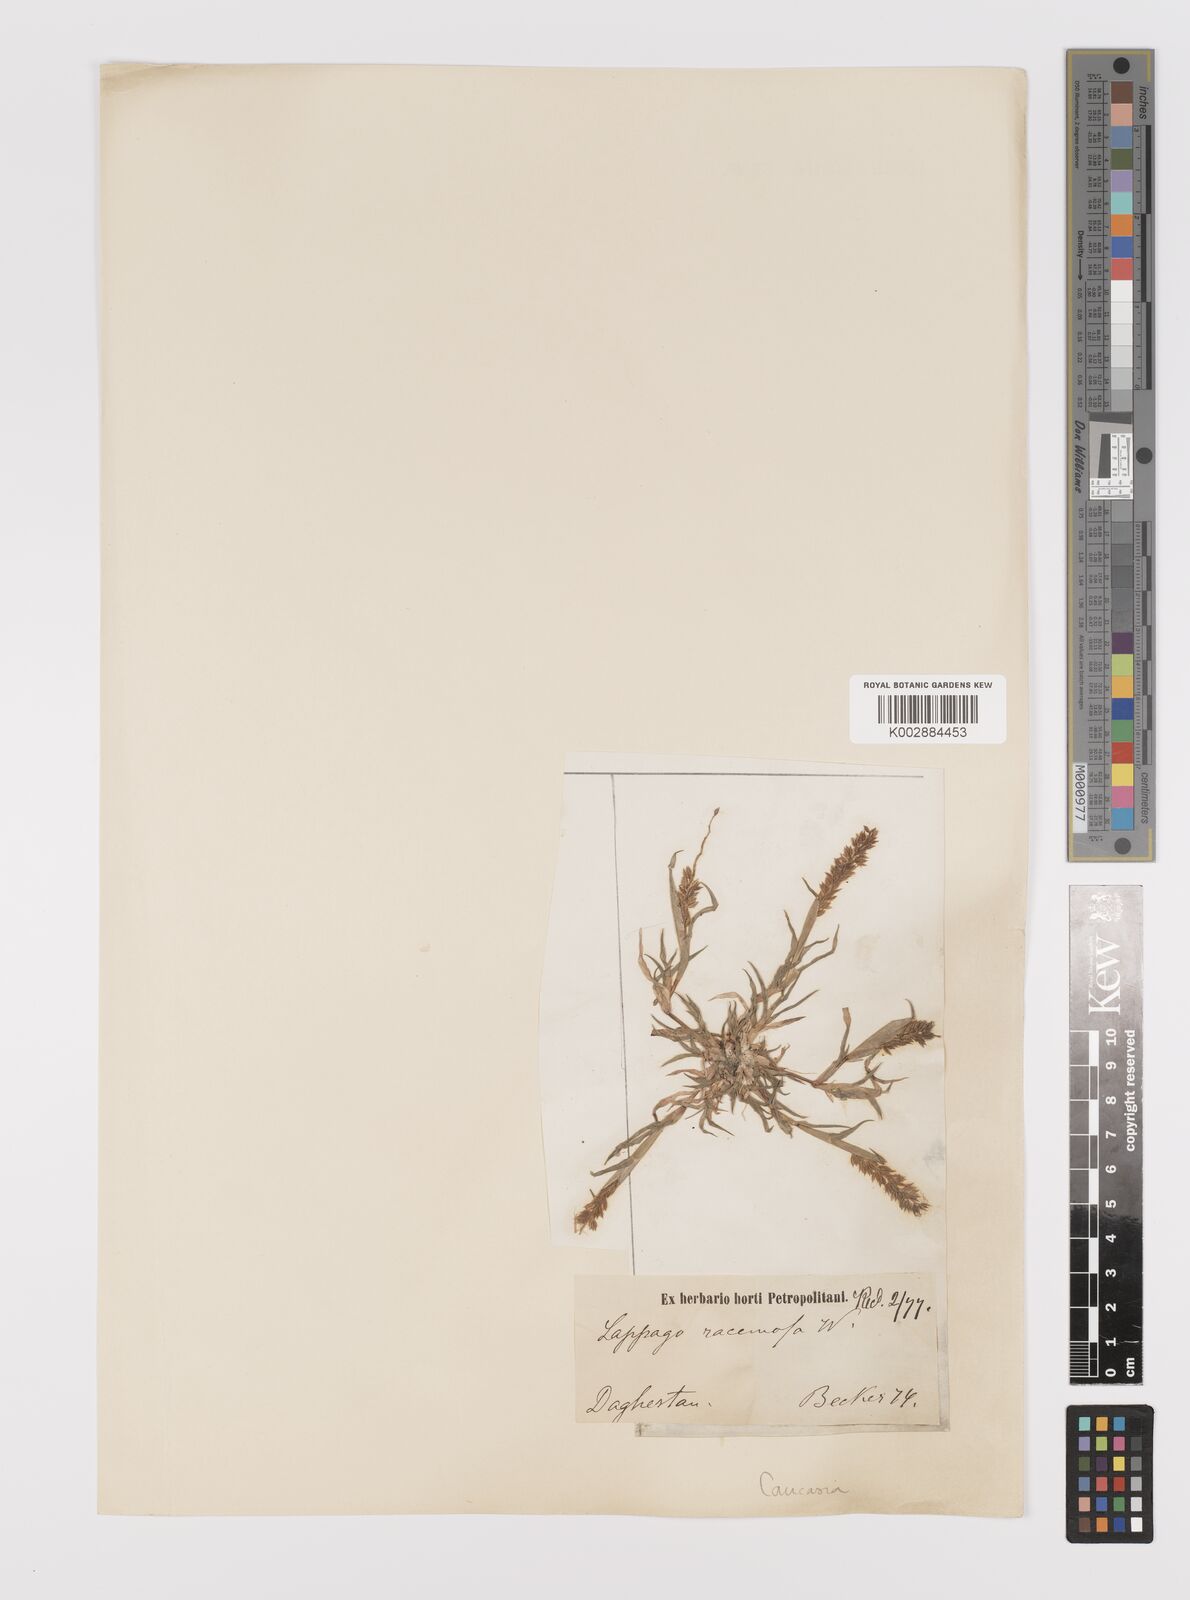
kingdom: Plantae
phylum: Tracheophyta
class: Liliopsida
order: Poales
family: Poaceae
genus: Tragus
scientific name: Tragus racemosus
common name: European bur-grass
